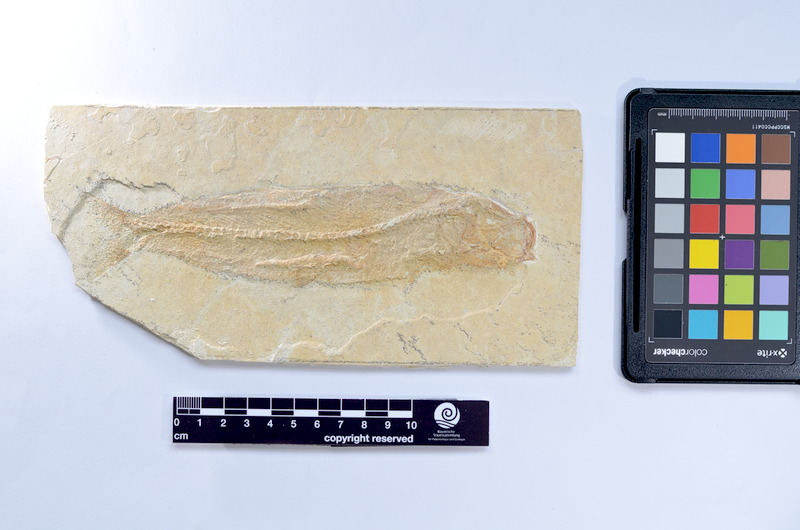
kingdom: Animalia
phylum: Chordata
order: Elopiformes
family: Anaethalionidae
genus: Anaethalion
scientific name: Anaethalion knorri
